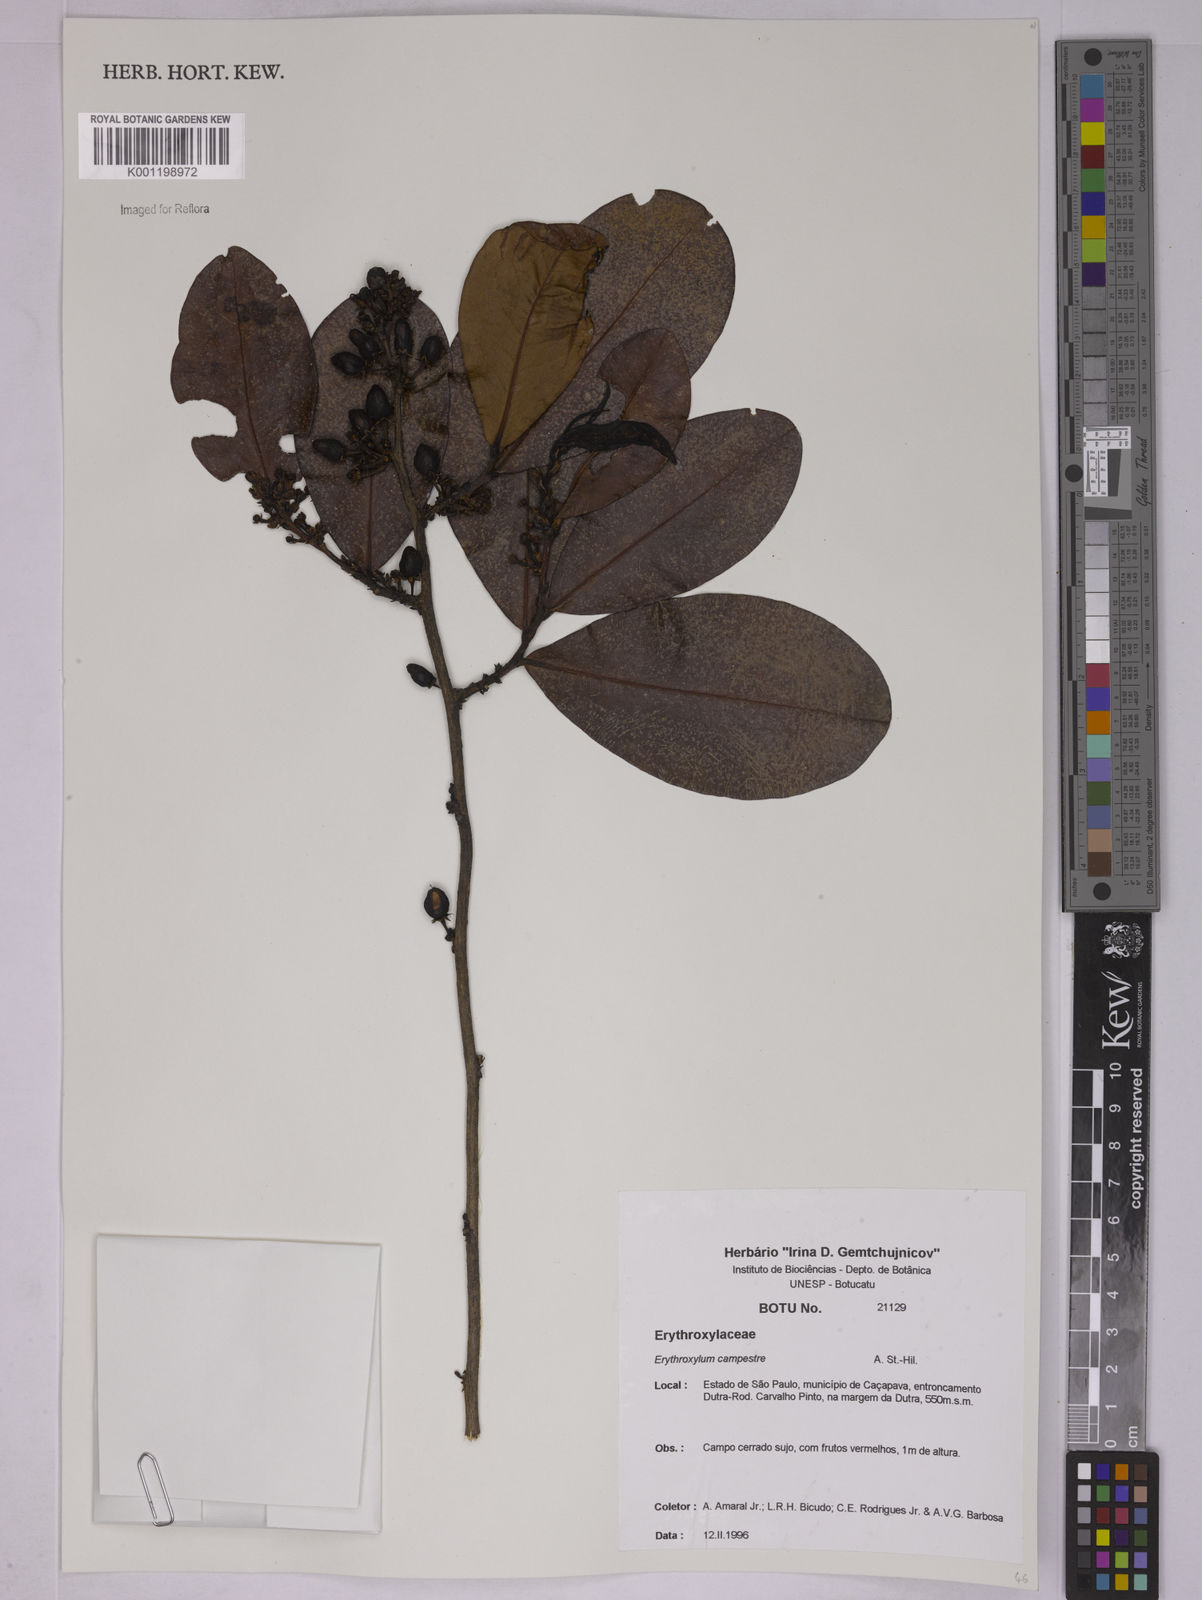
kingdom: Plantae
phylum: Tracheophyta
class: Magnoliopsida
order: Malpighiales
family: Erythroxylaceae
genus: Erythroxylum
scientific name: Erythroxylum campestre
